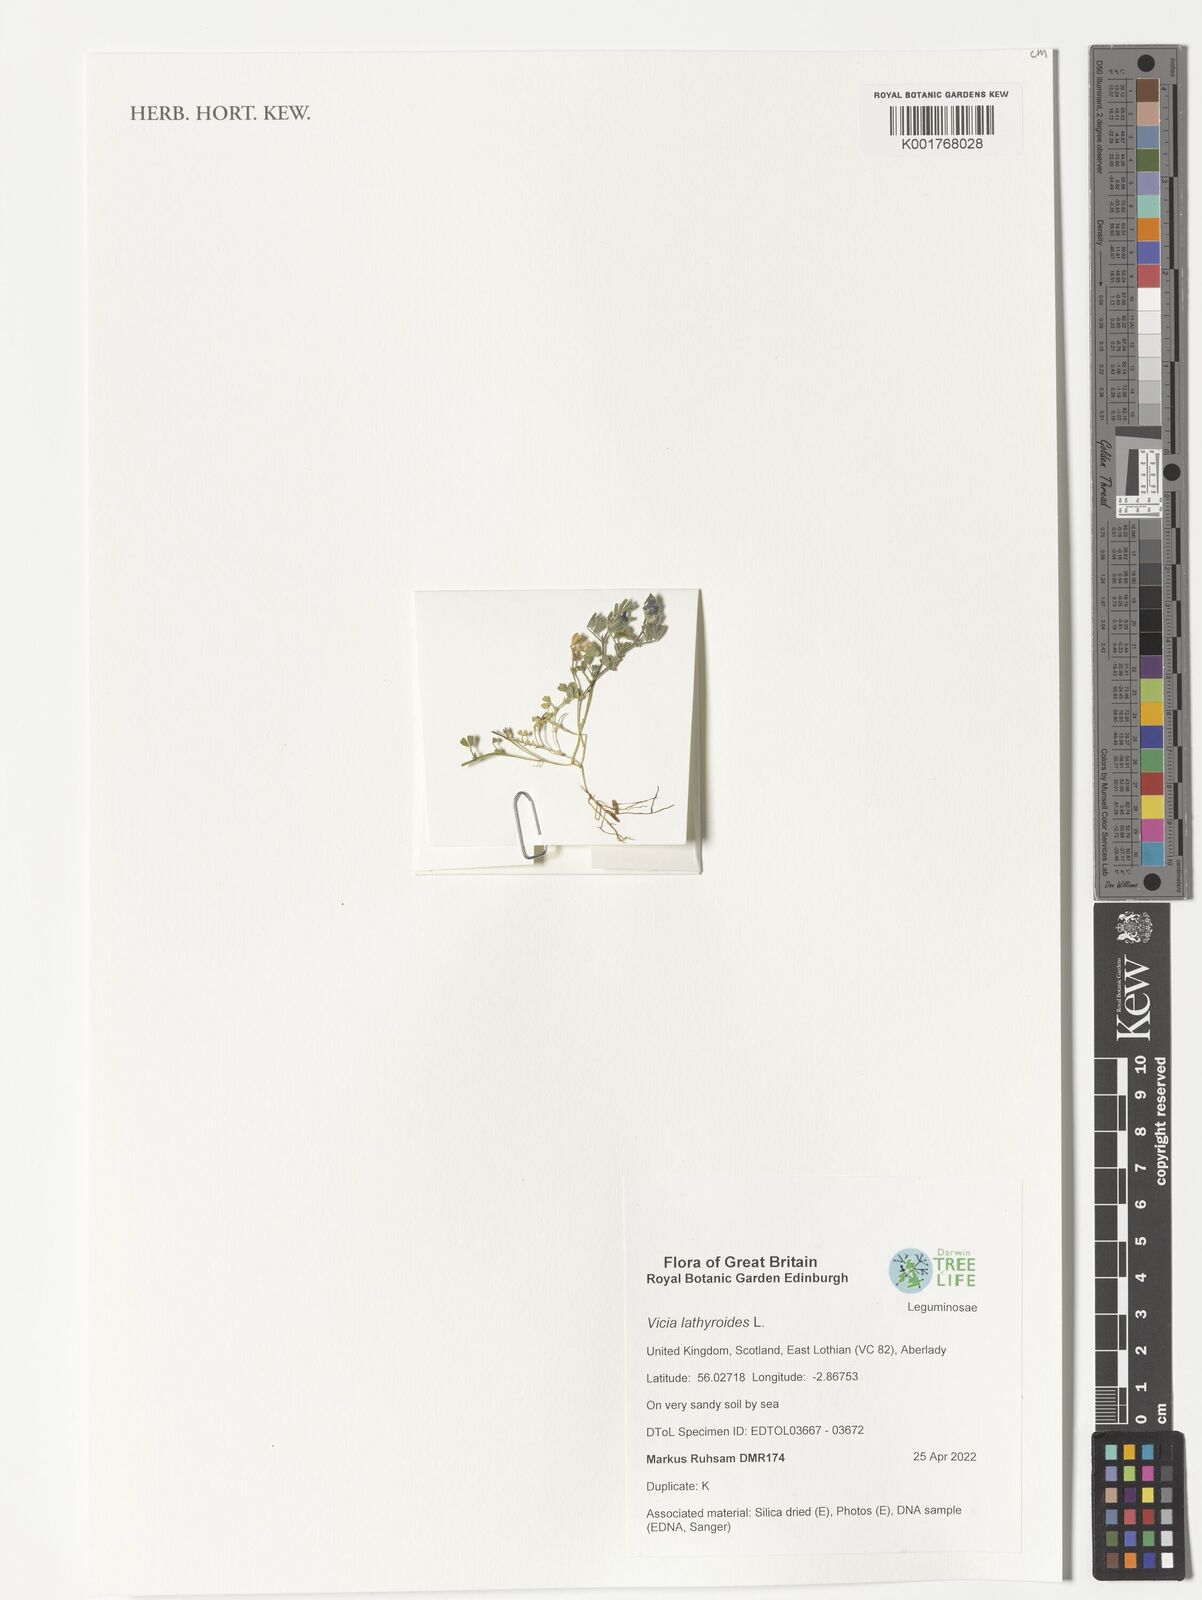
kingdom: Plantae
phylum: Tracheophyta
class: Magnoliopsida
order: Fabales
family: Fabaceae
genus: Vicia
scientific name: Vicia lathyroides
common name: Spring vetch
